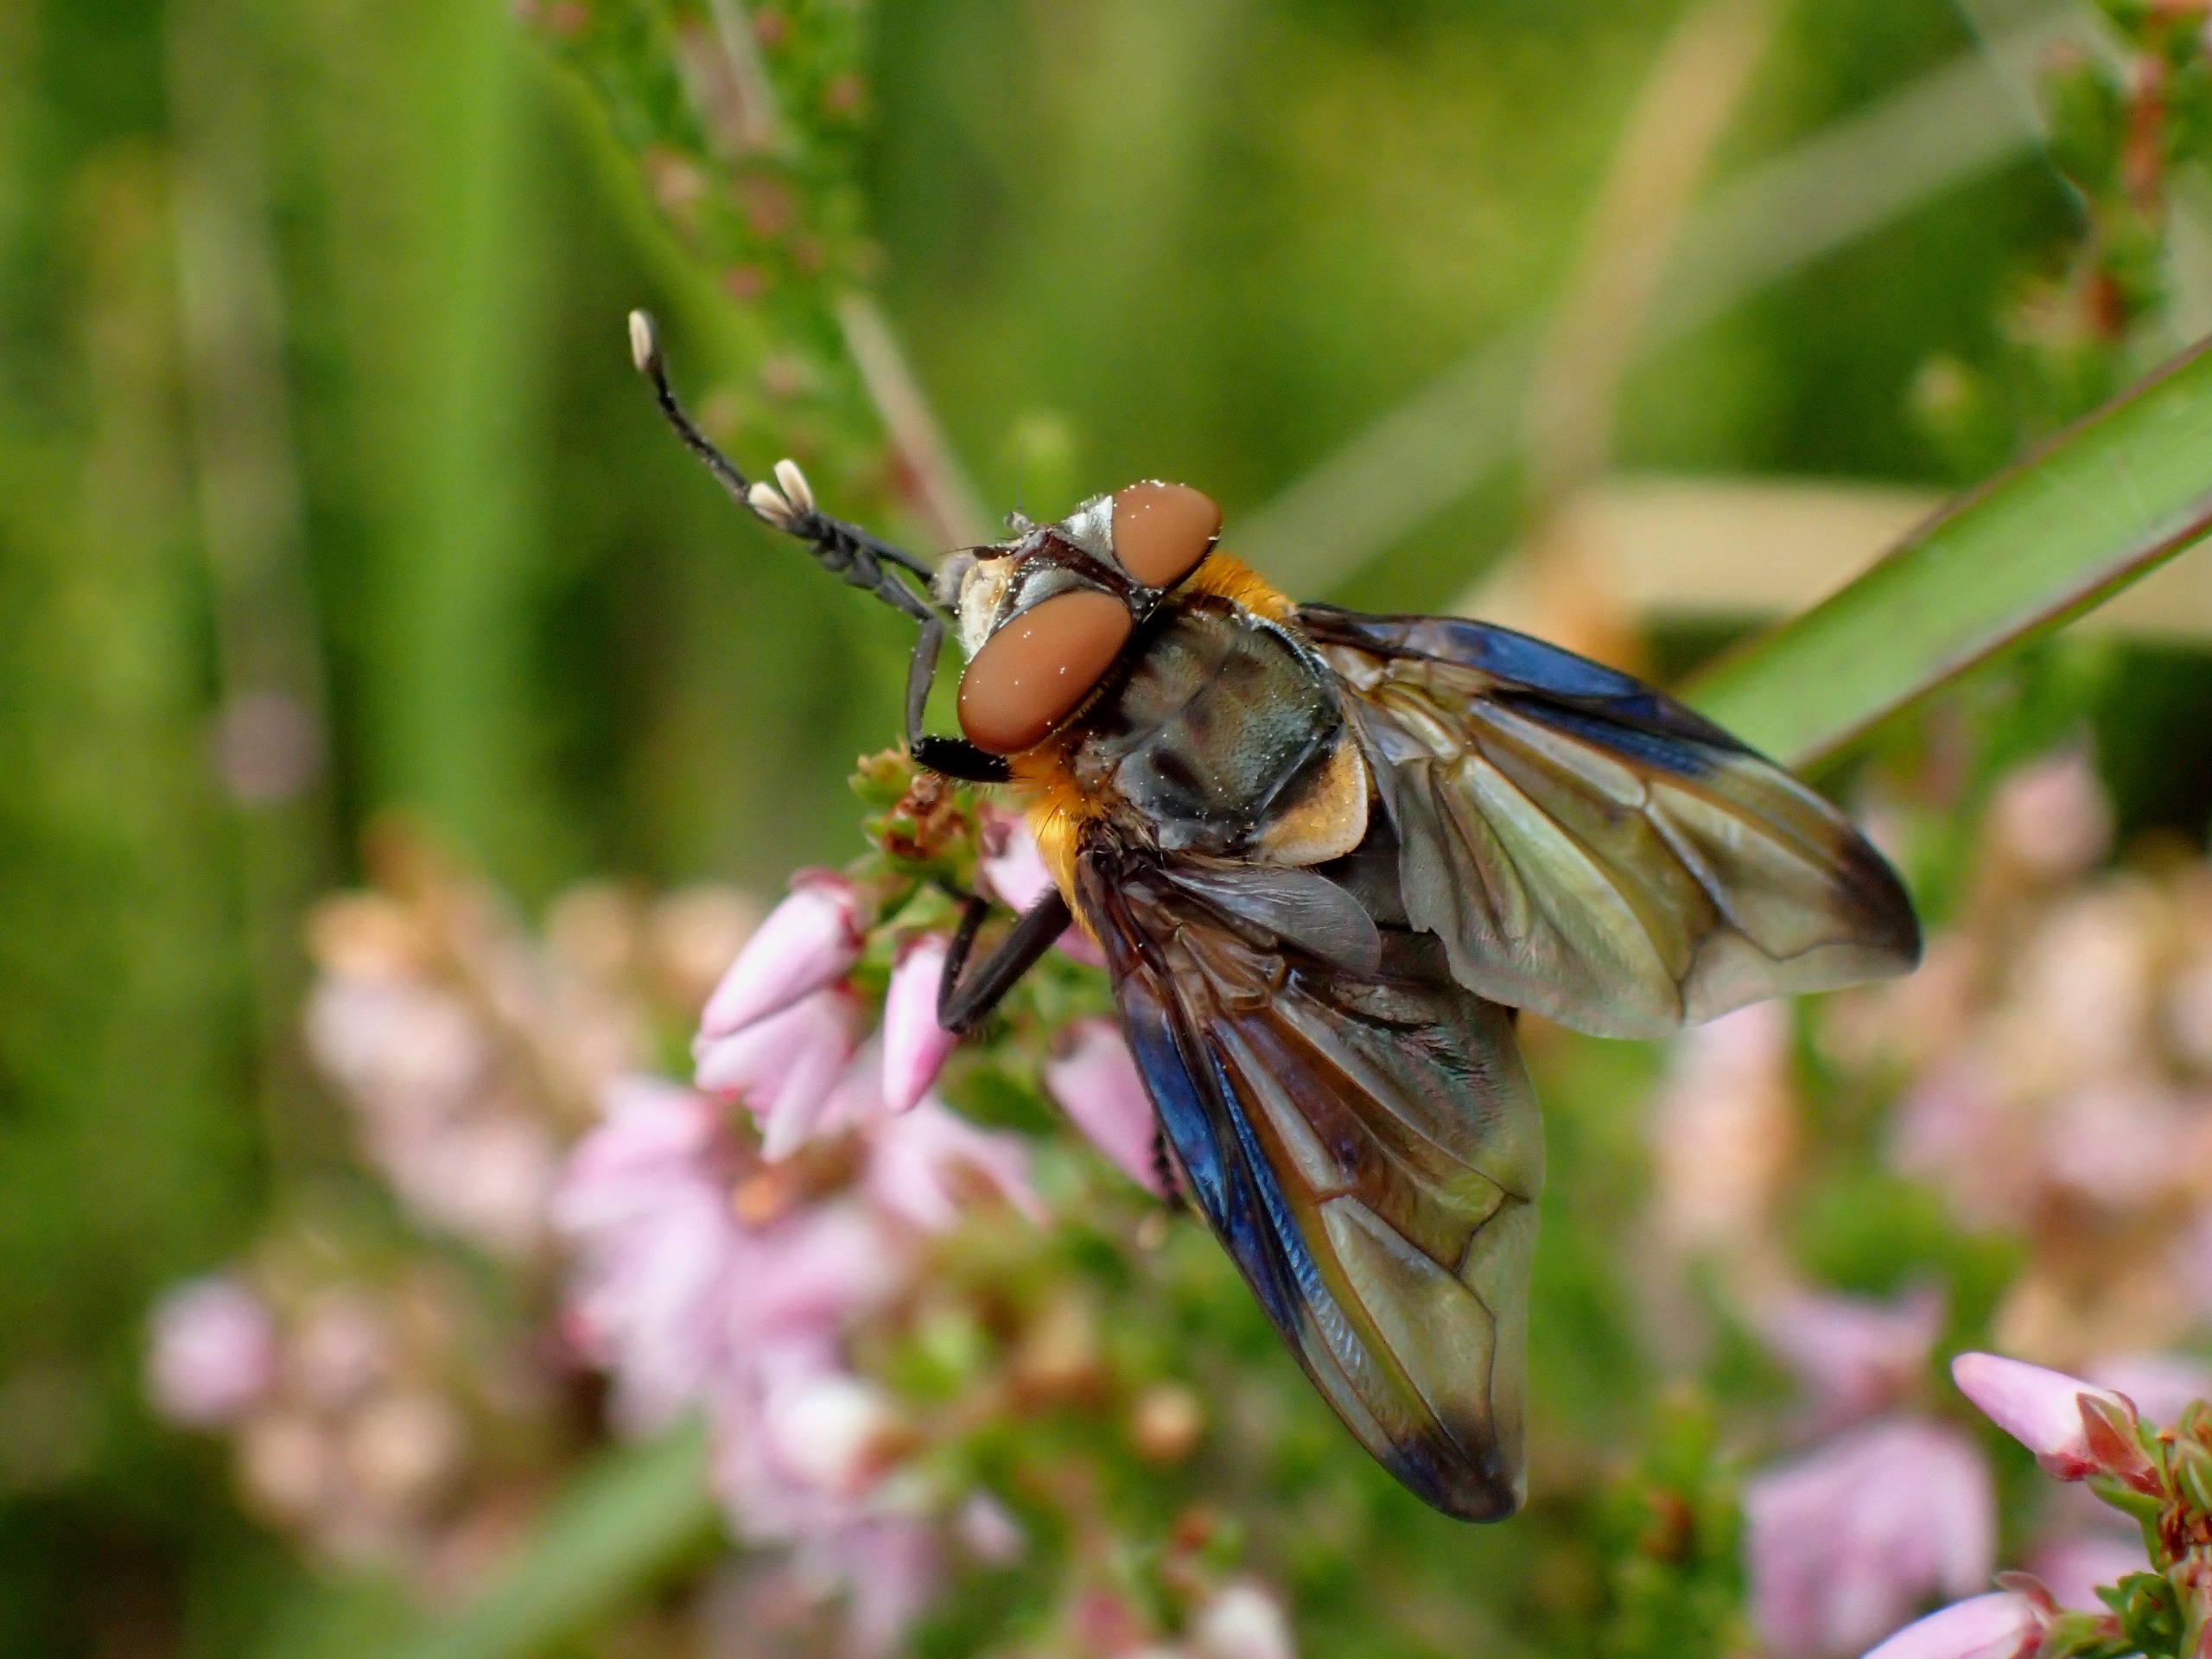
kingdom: Animalia
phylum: Arthropoda
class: Insecta
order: Diptera
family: Tachinidae
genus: Phasia
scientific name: Phasia hemiptera
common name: Blåvinget pragtsnylteflue
